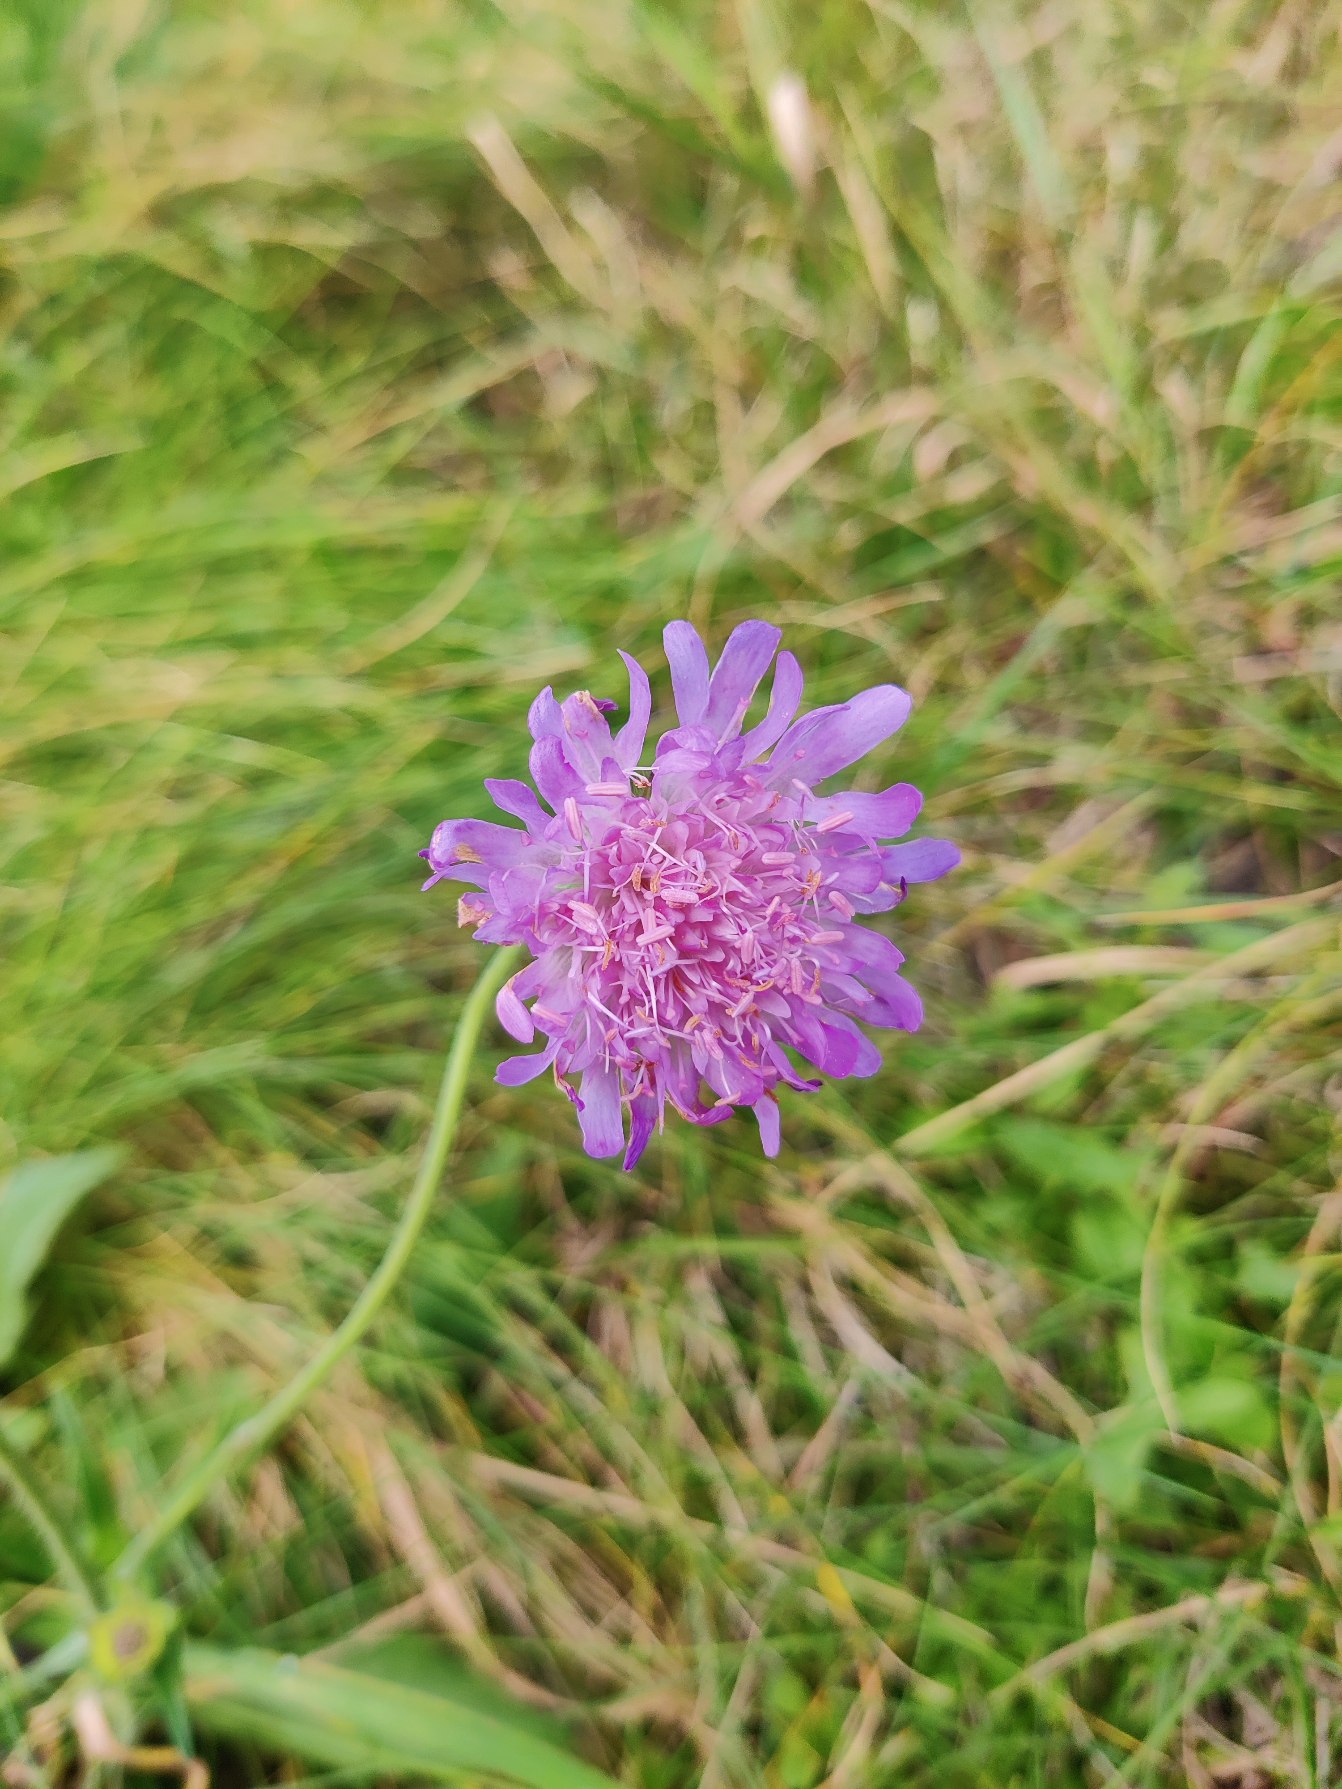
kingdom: Plantae
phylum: Tracheophyta
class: Magnoliopsida
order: Dipsacales
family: Caprifoliaceae
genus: Knautia
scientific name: Knautia arvensis
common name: Blåhat
